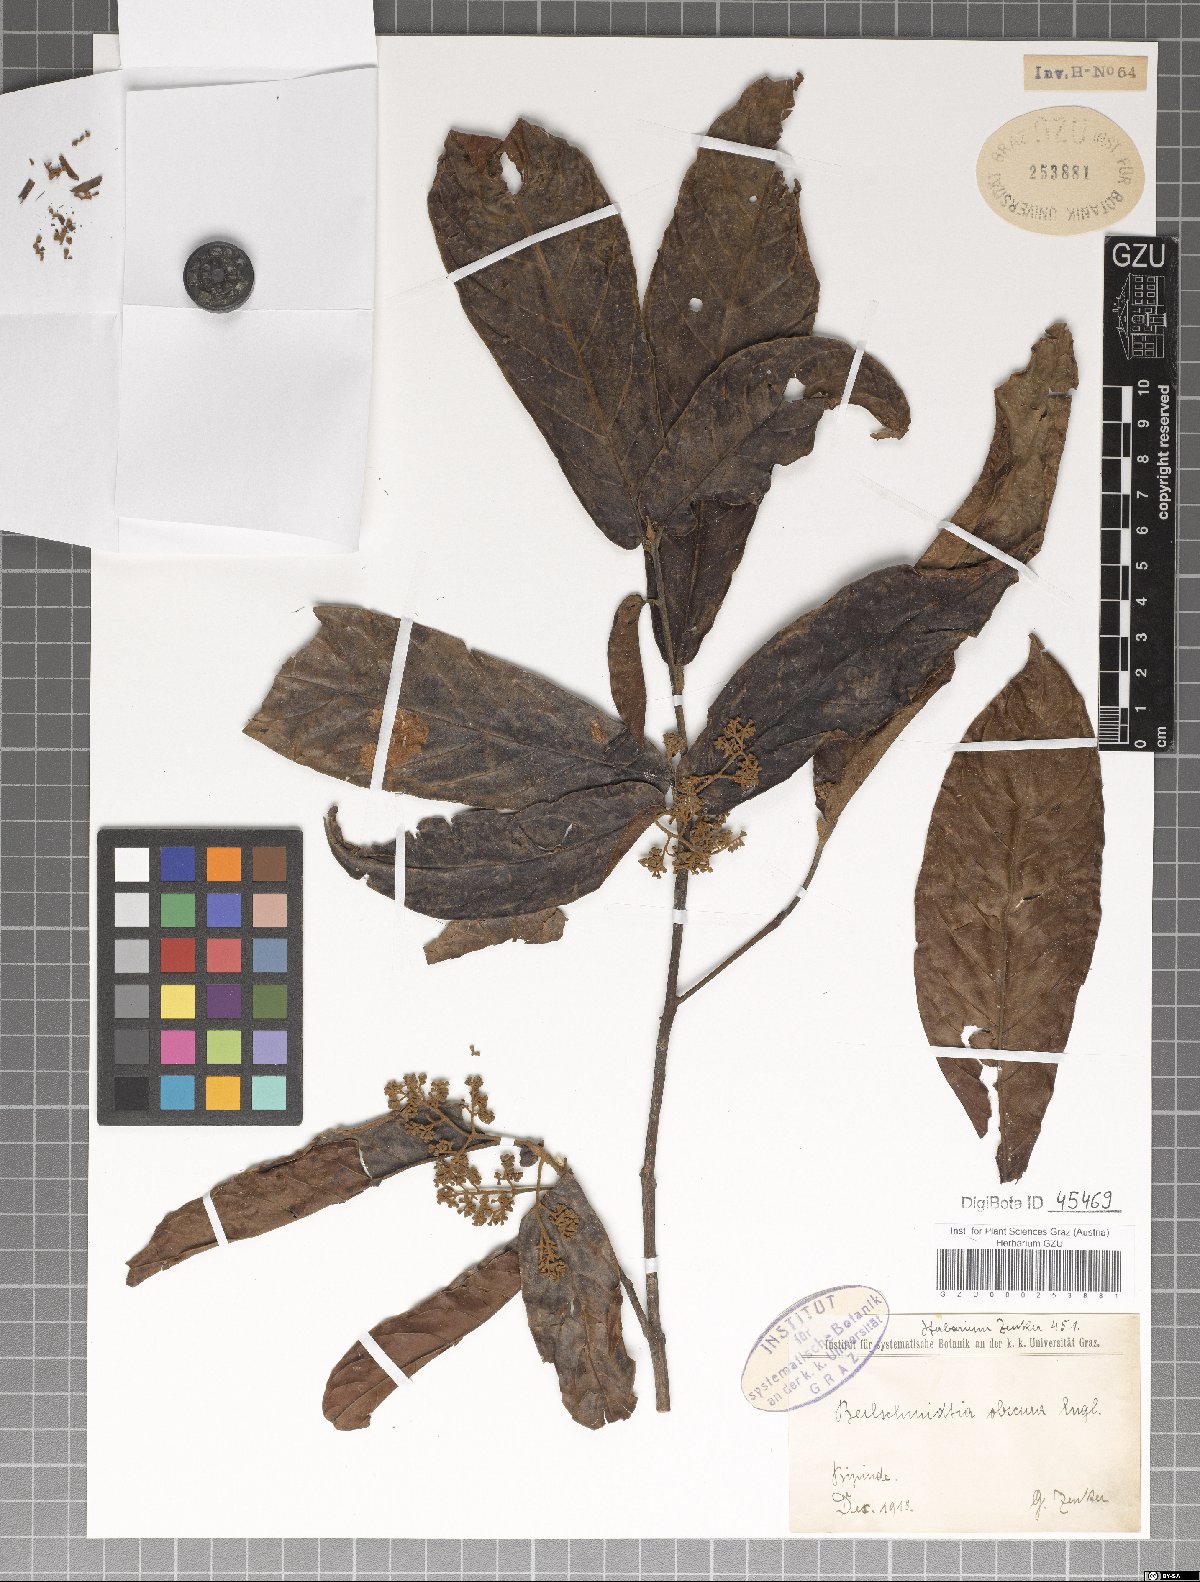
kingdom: Plantae
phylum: Tracheophyta
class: Magnoliopsida
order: Laurales
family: Lauraceae
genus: Beilschmiedia
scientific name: Beilschmiedia obscura
